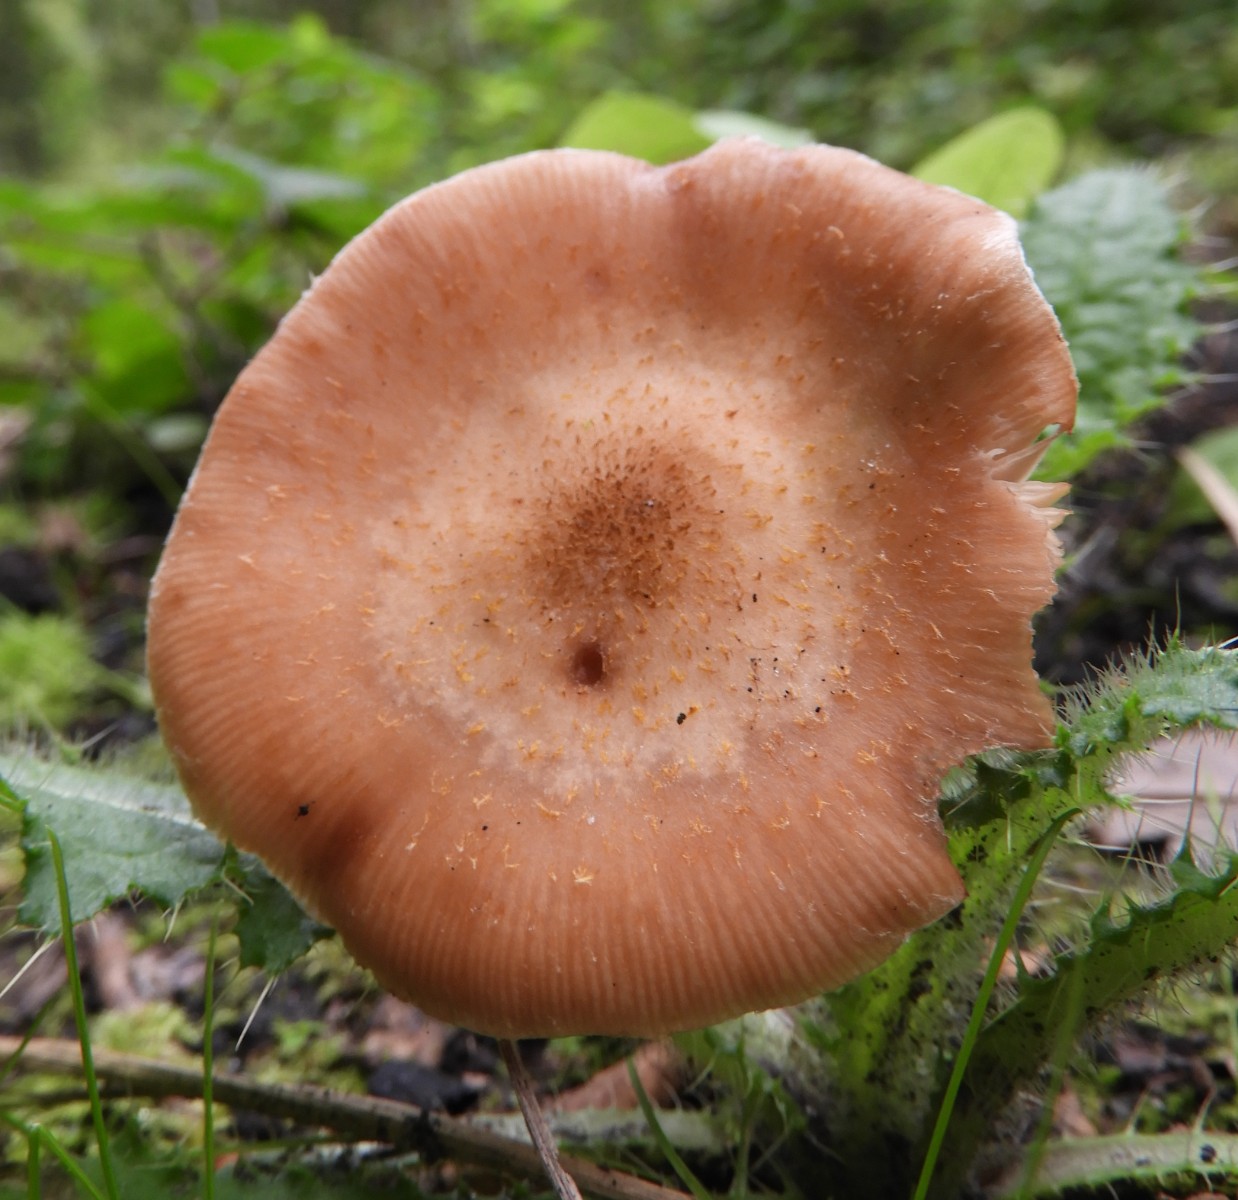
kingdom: Fungi
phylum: Basidiomycota
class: Agaricomycetes
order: Agaricales
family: Physalacriaceae
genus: Armillaria
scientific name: Armillaria lutea
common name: køllestokket honningsvamp
